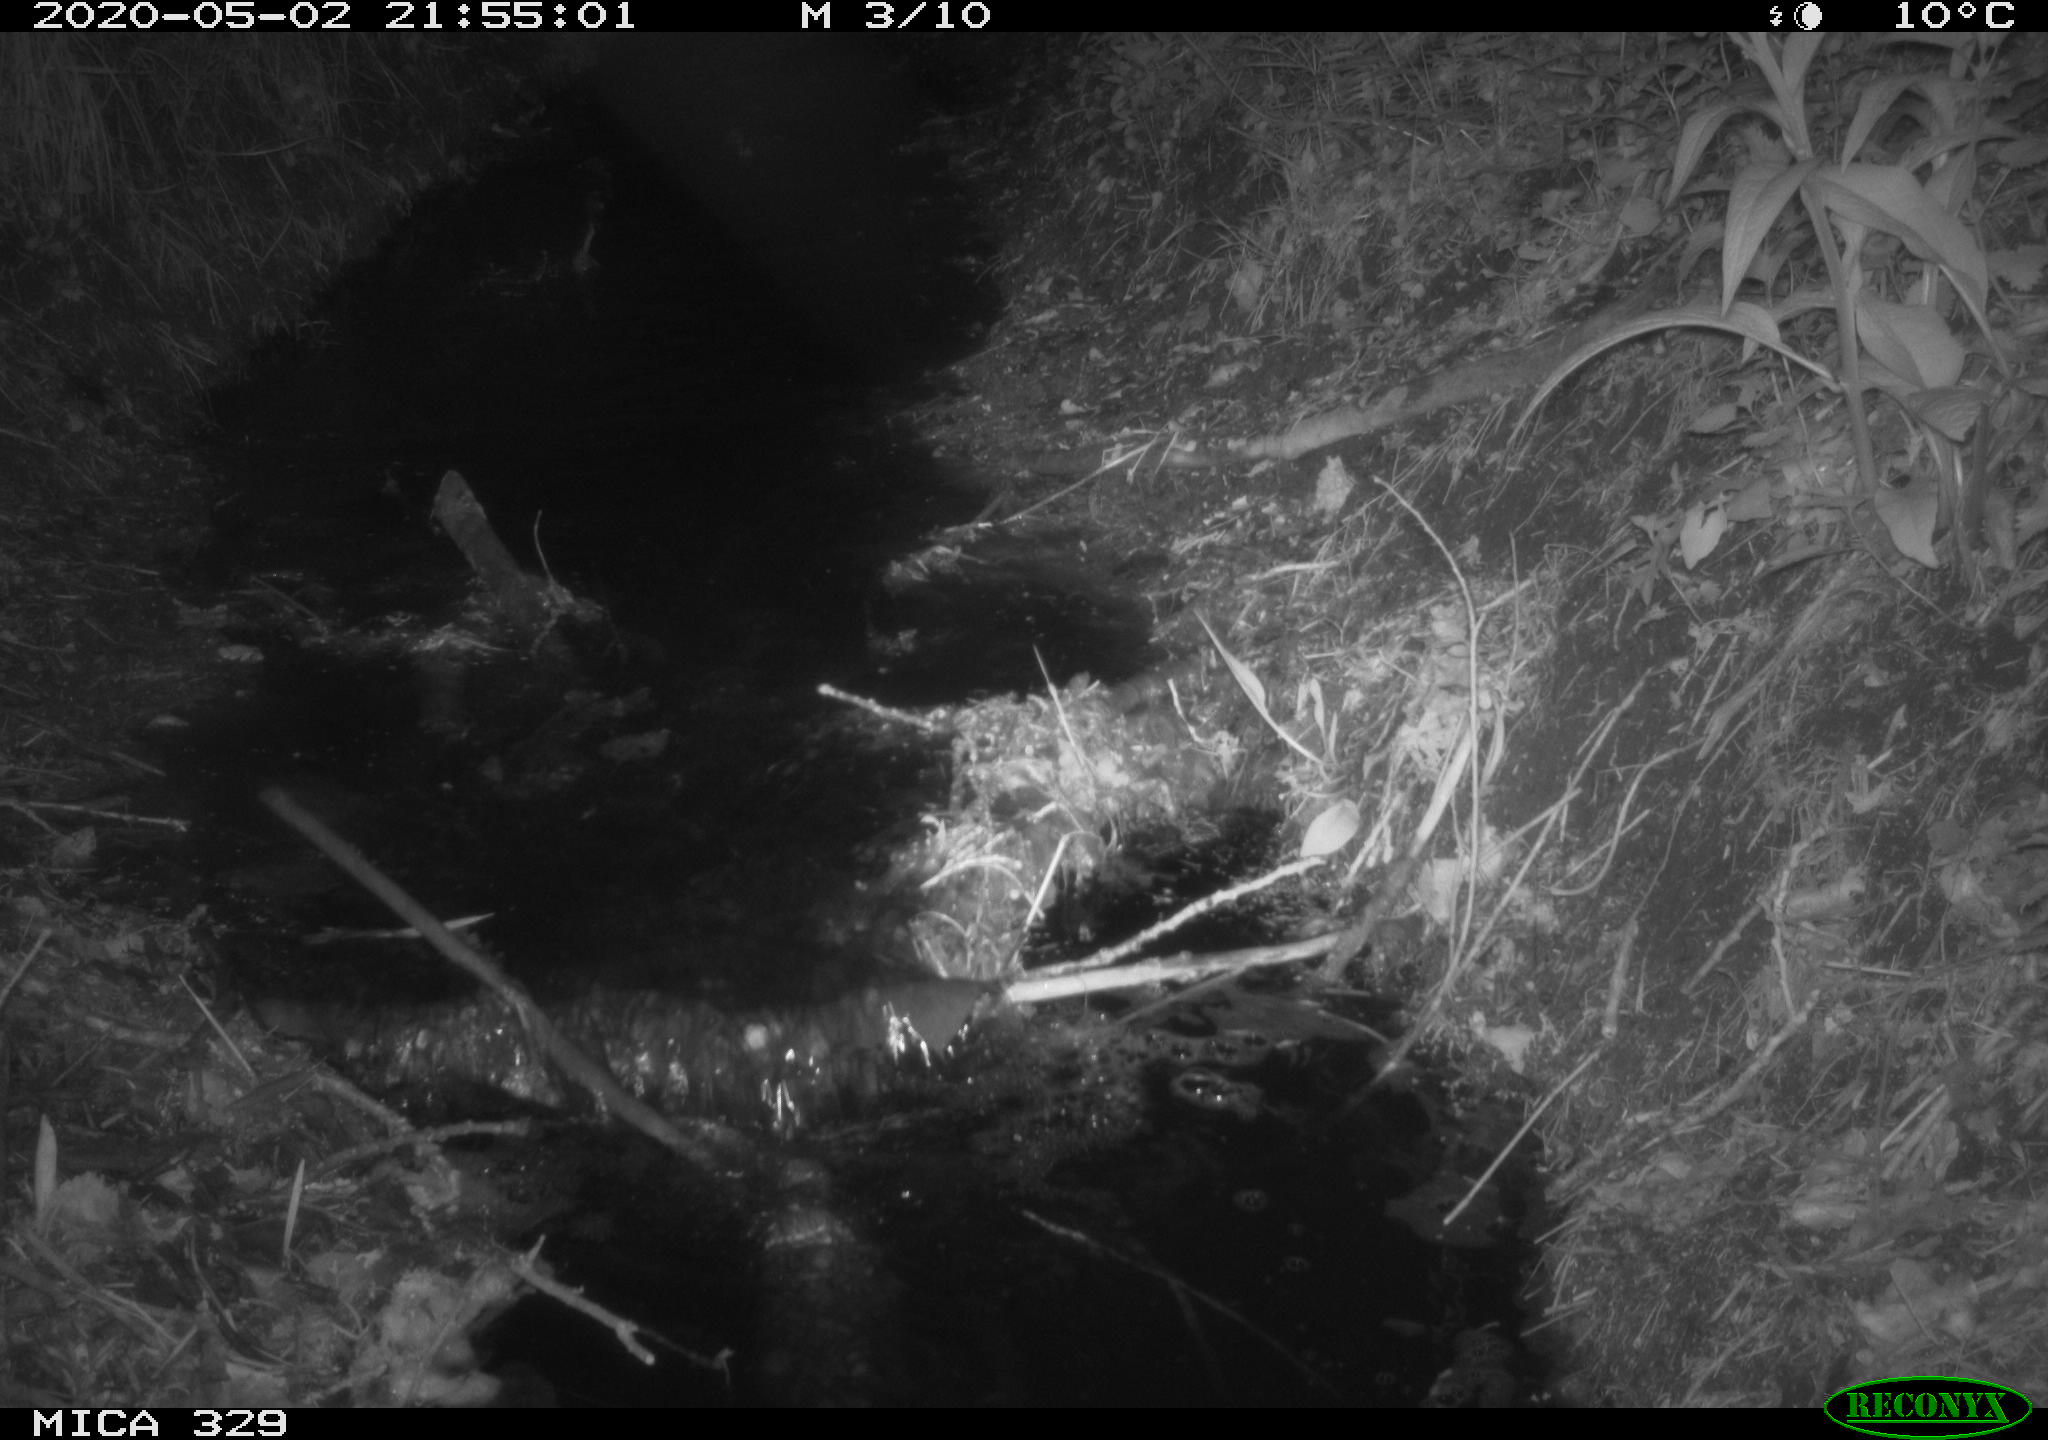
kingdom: Animalia
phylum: Chordata
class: Mammalia
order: Rodentia
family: Cricetidae
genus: Ondatra
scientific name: Ondatra zibethicus
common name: Muskrat
